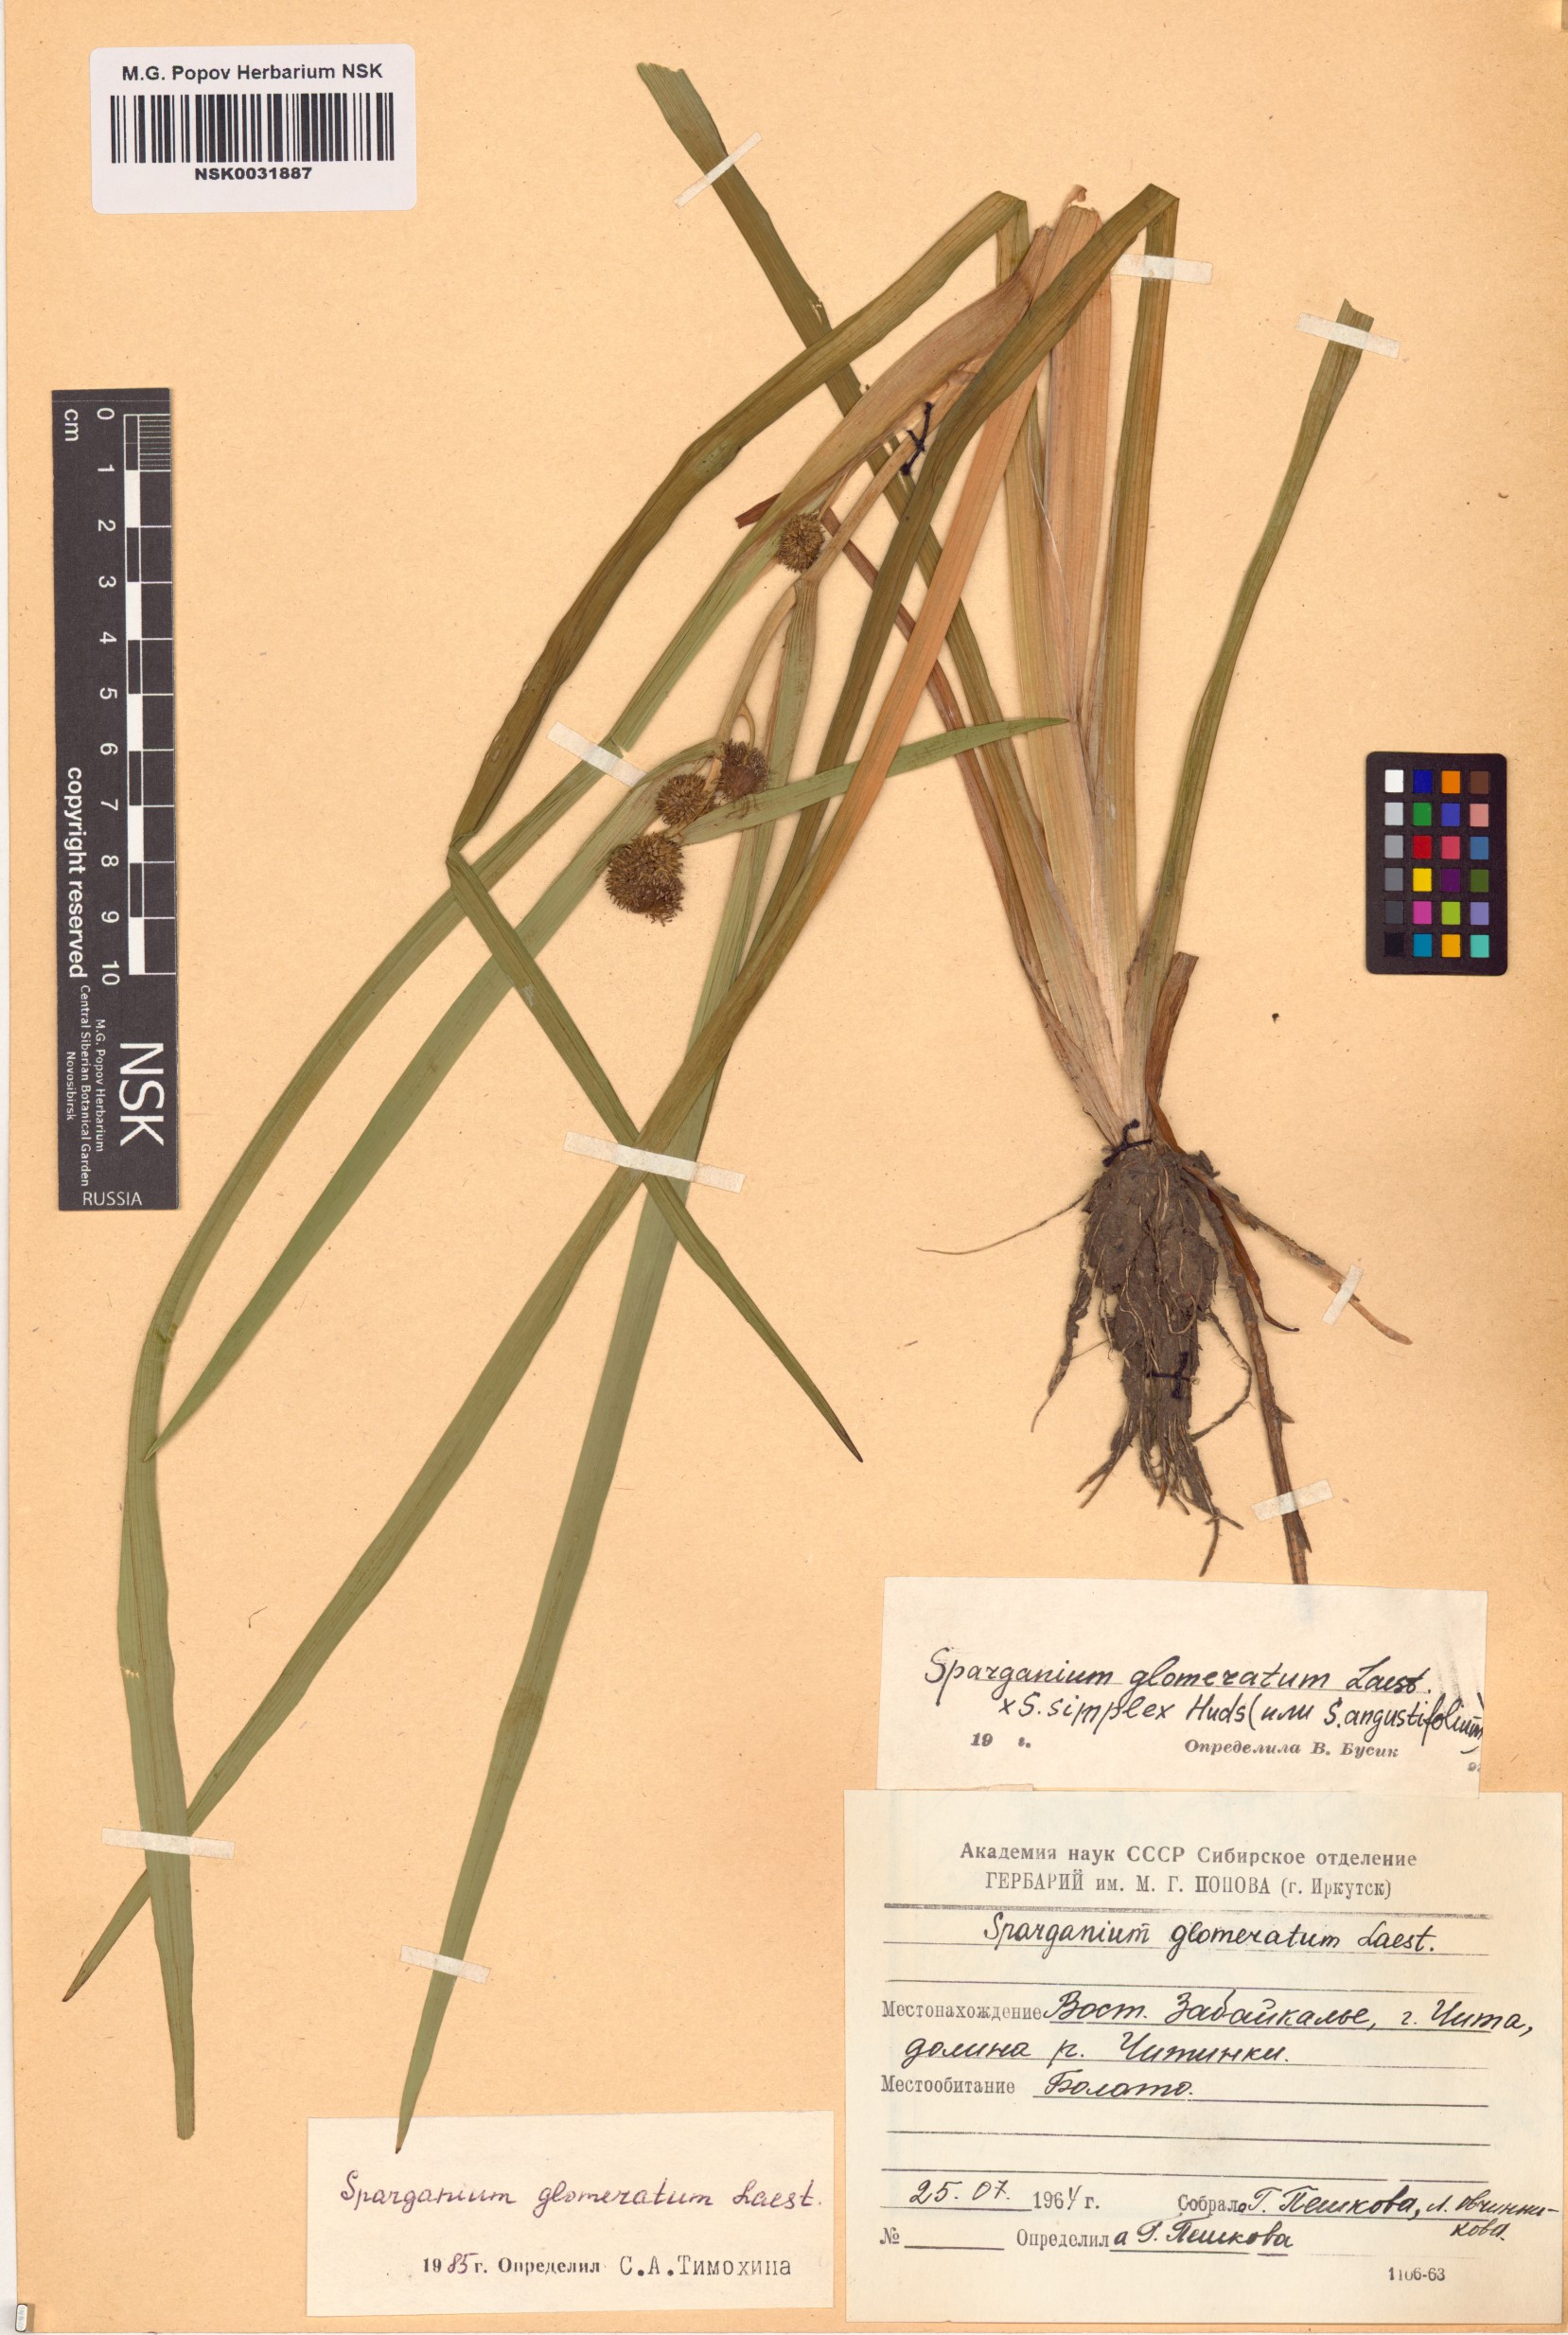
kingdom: Plantae
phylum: Tracheophyta
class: Liliopsida
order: Poales
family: Typhaceae
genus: Sparganium
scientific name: Sparganium glomeratum
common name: Clustered burreed
